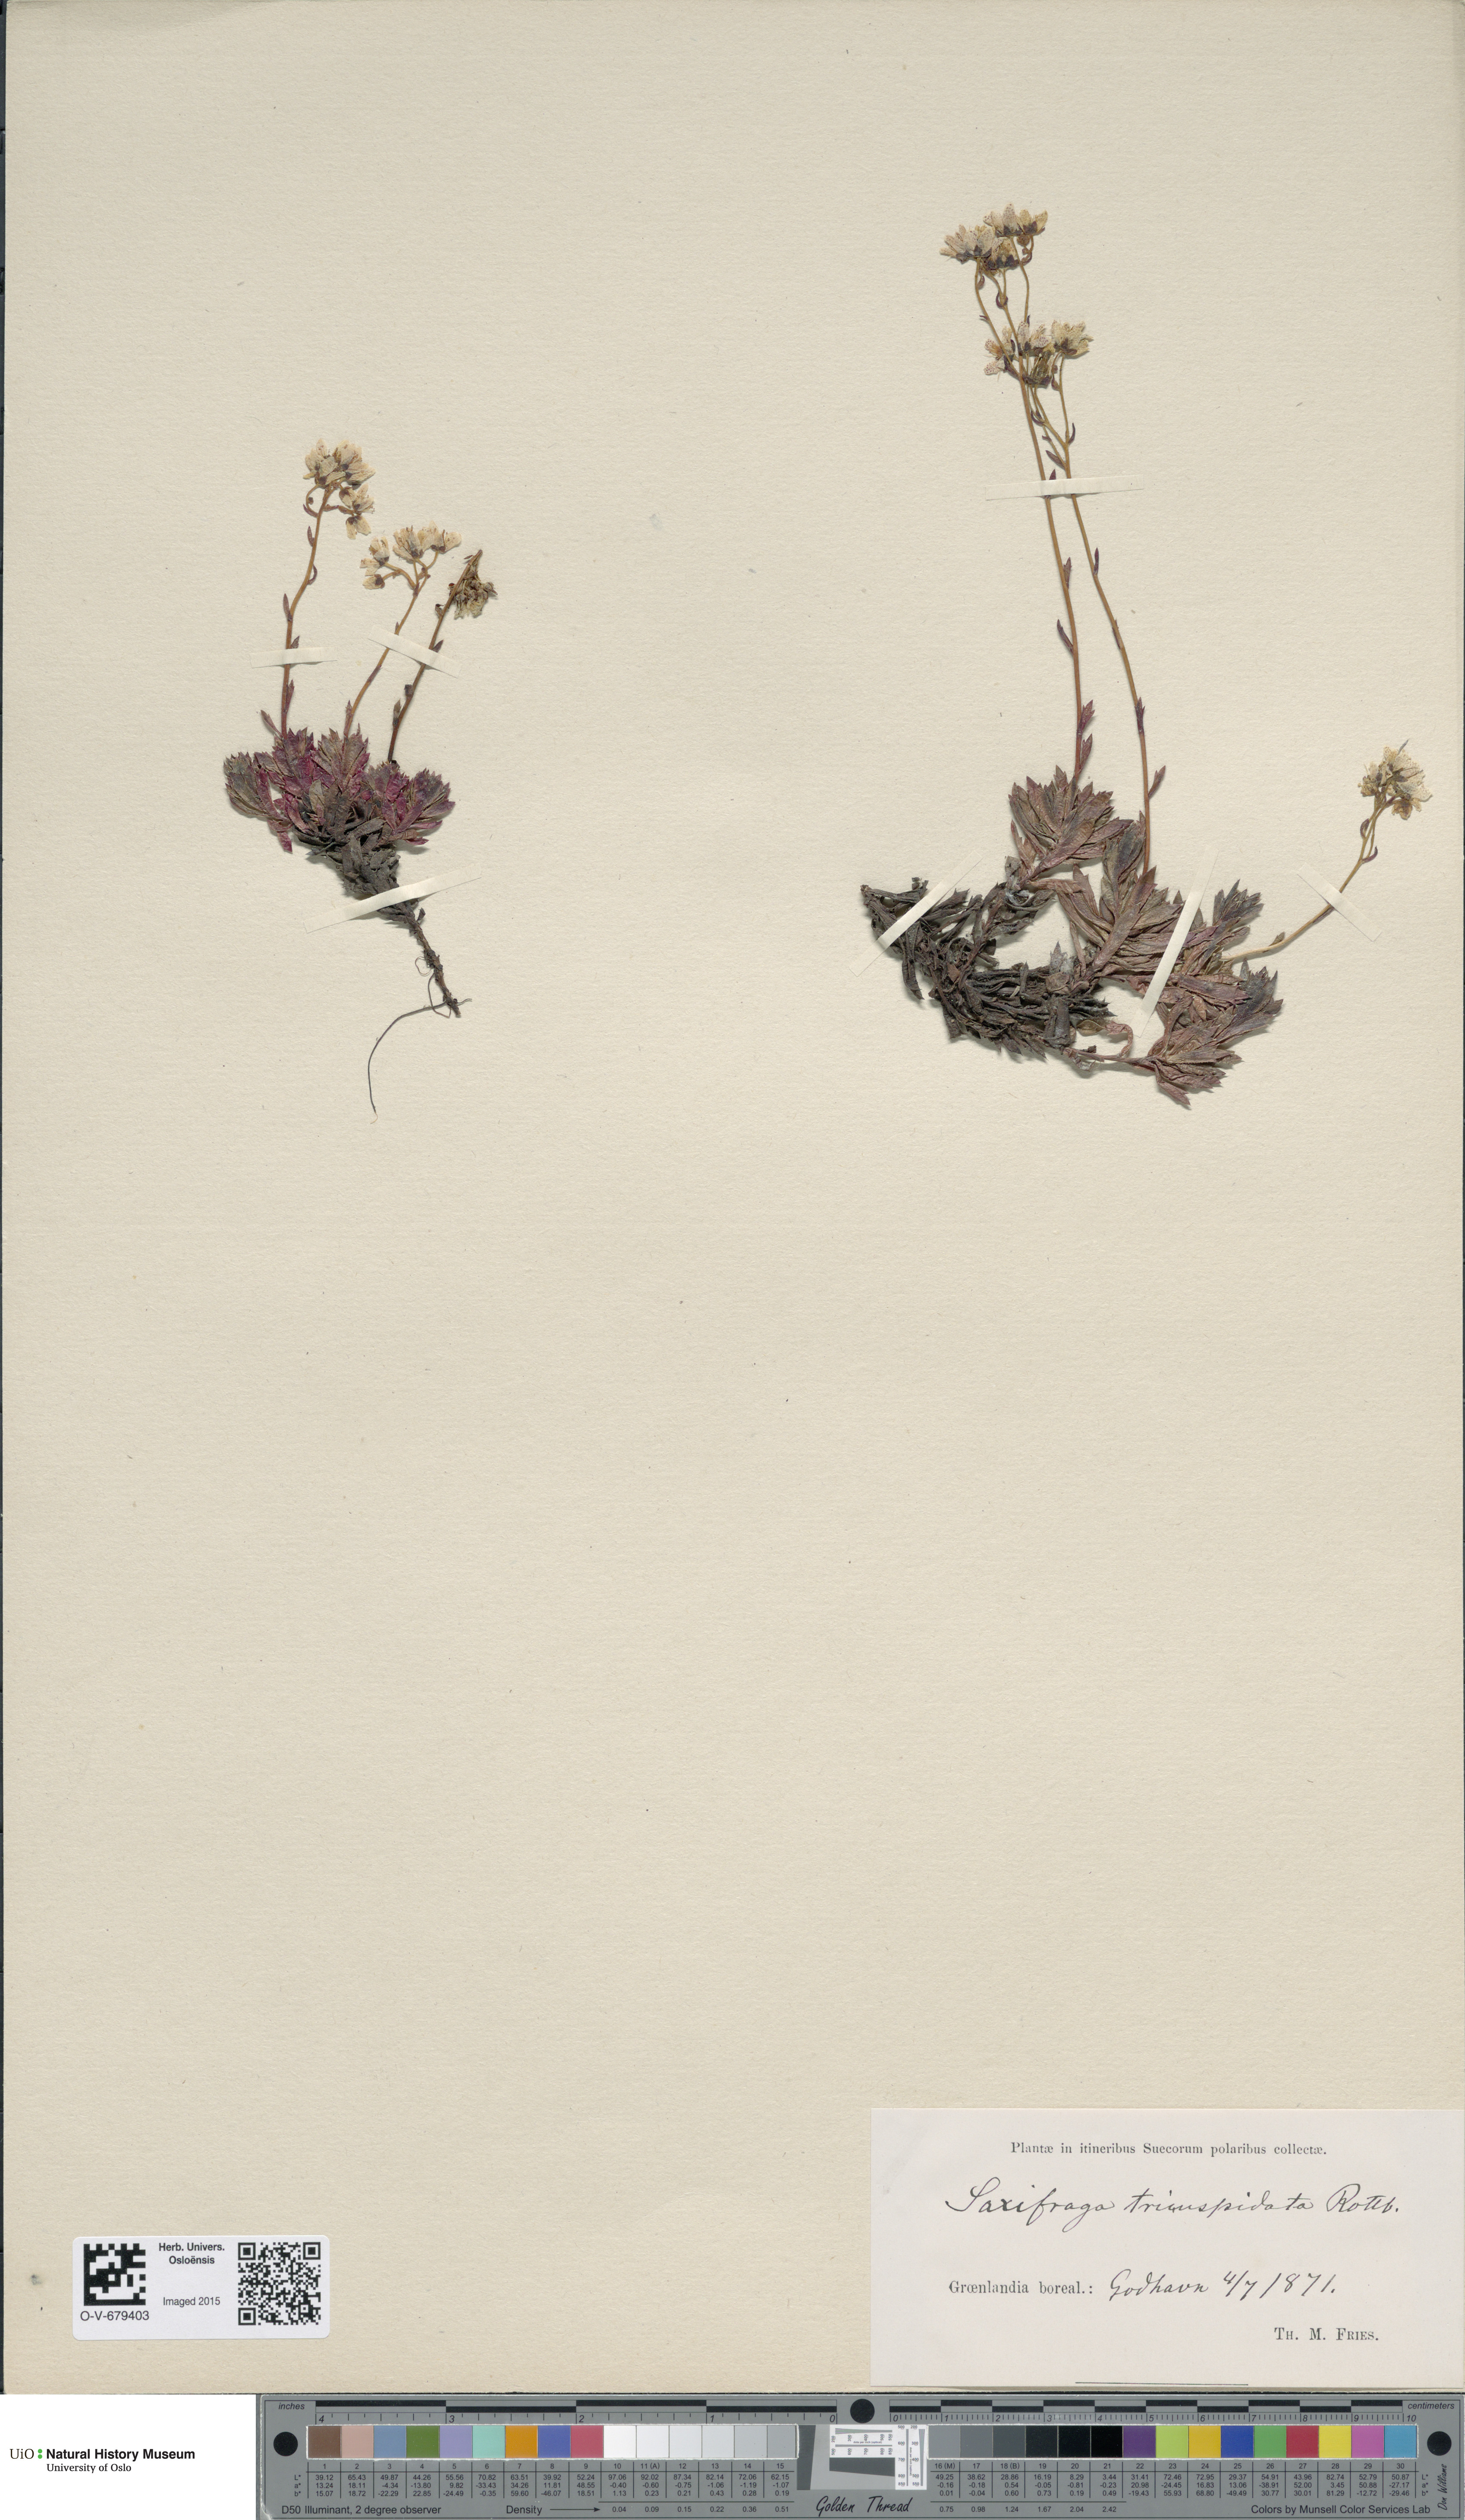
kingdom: Plantae
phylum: Tracheophyta
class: Magnoliopsida
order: Saxifragales
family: Saxifragaceae
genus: Saxifraga
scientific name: Saxifraga tricuspidata
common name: Prickly saxifrage
